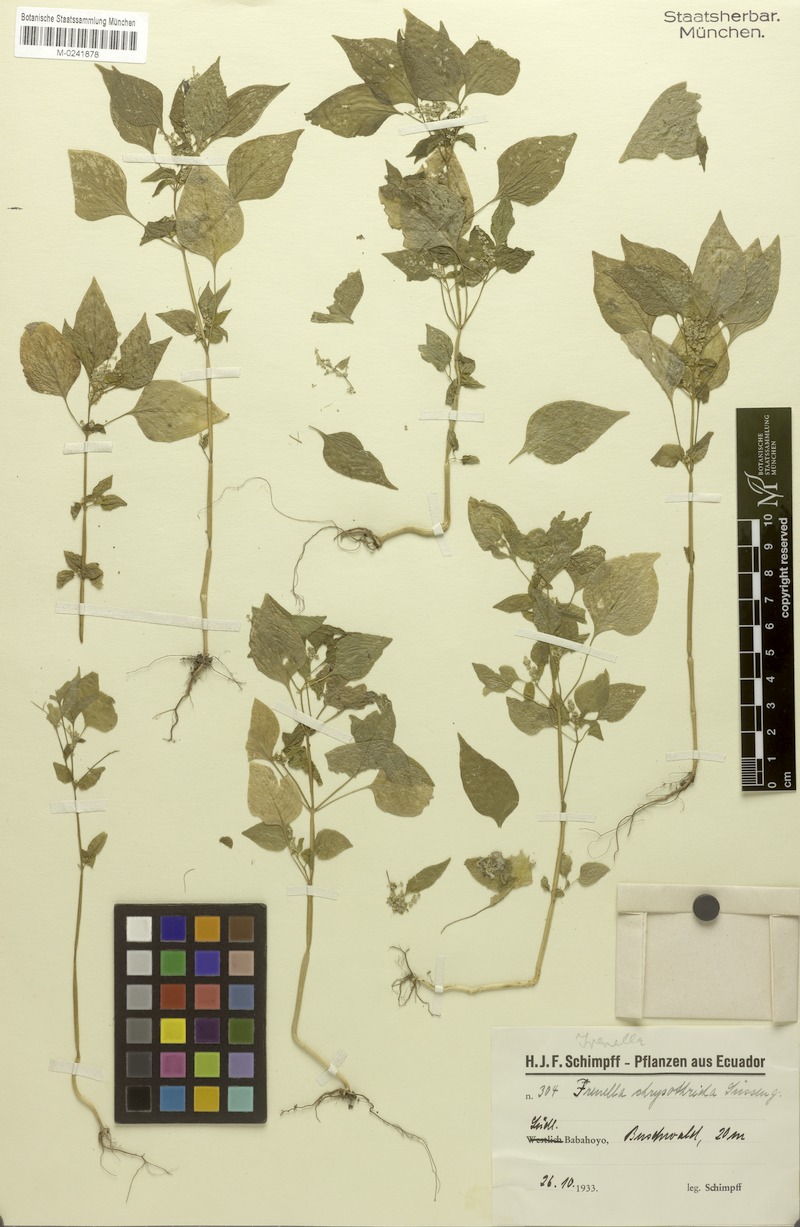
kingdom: Plantae
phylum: Tracheophyta
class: Magnoliopsida
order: Caryophyllales
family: Amaranthaceae
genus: Iresine
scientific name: Iresine chrysotricha
